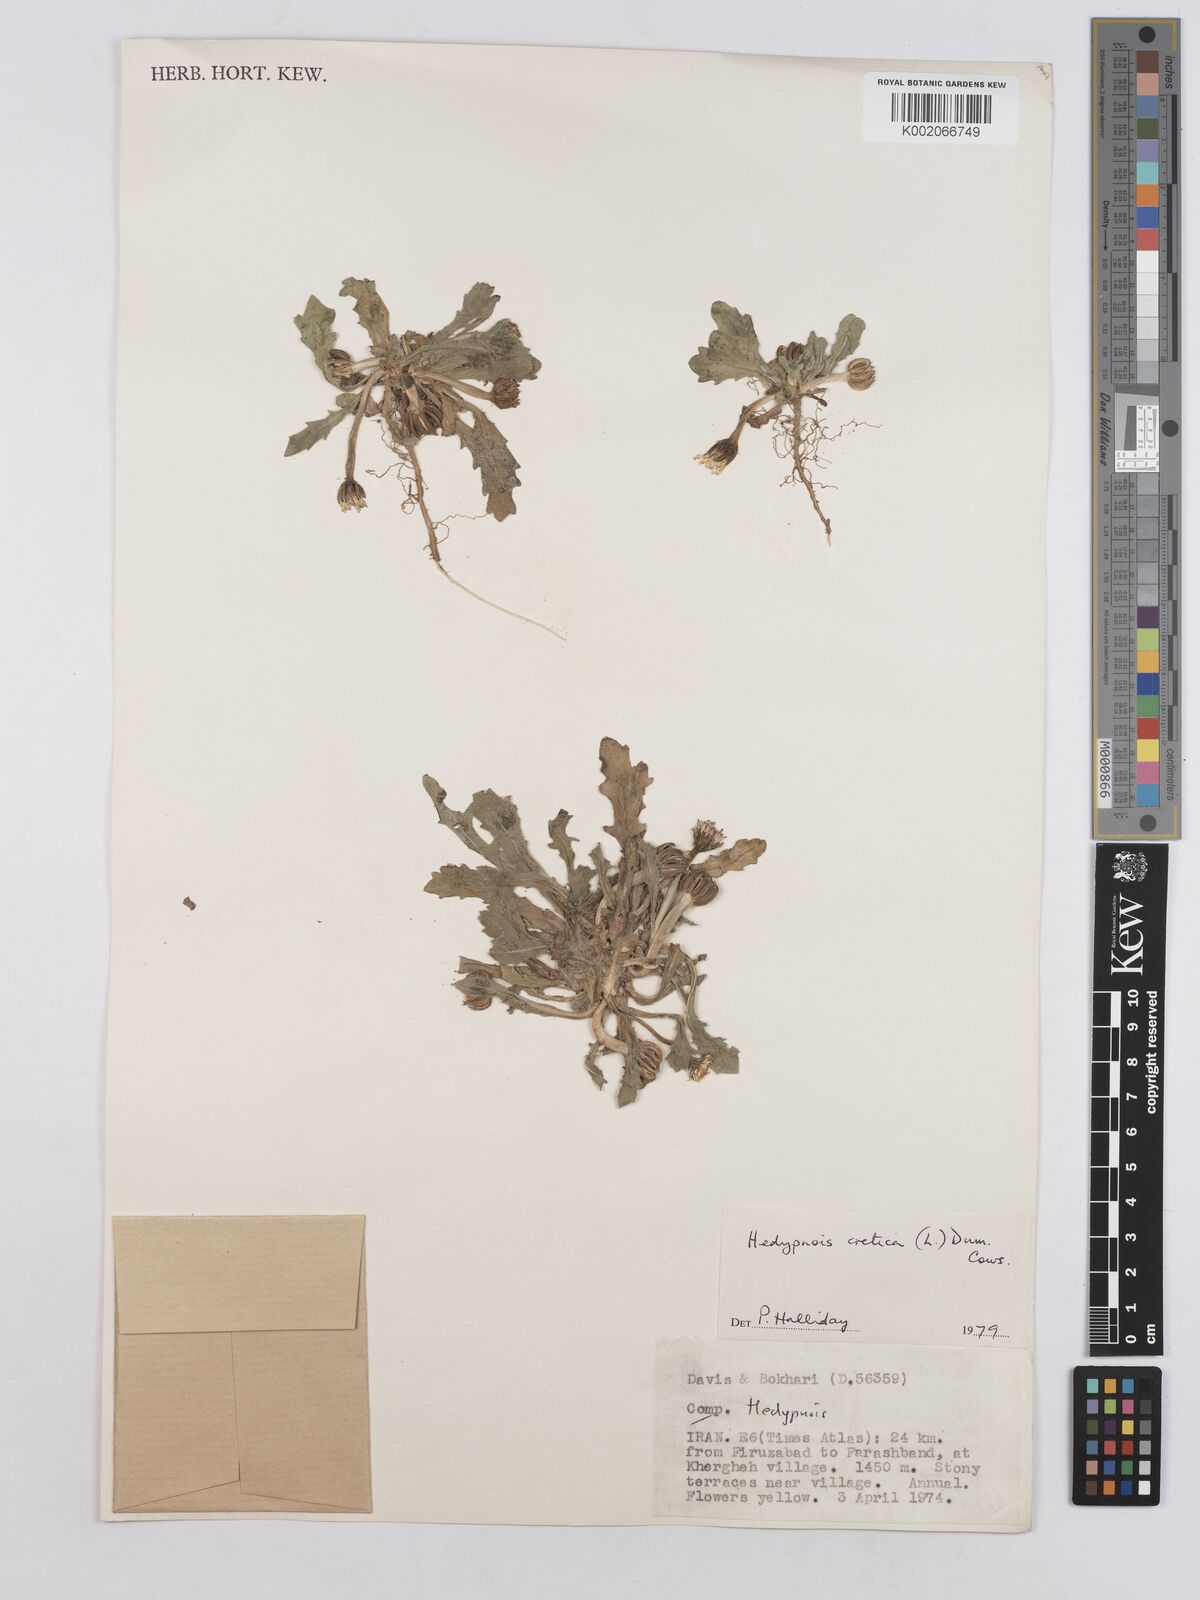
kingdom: Plantae
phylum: Tracheophyta
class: Magnoliopsida
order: Asterales
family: Asteraceae
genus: Hedypnois
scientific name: Hedypnois cretica
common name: Scaly hawkbit
